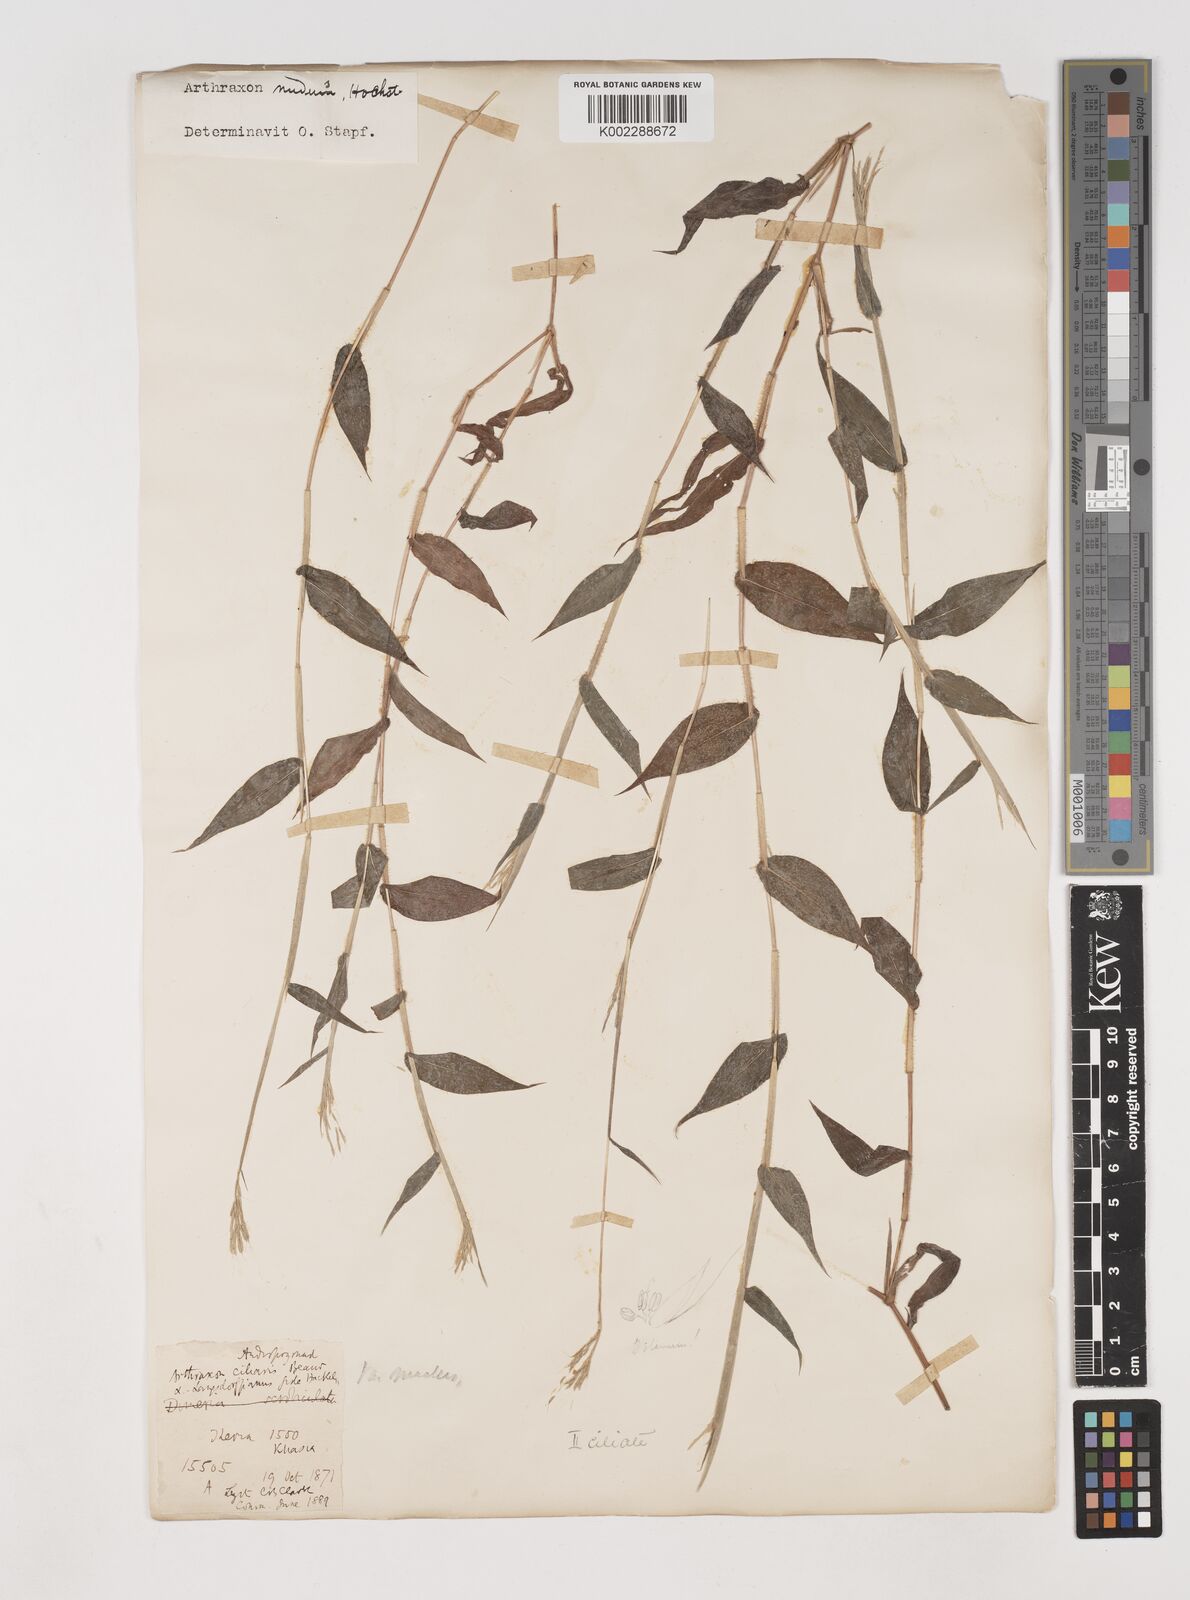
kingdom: Plantae
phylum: Tracheophyta
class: Liliopsida
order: Poales
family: Poaceae
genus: Arthraxon
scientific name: Arthraxon nudus
